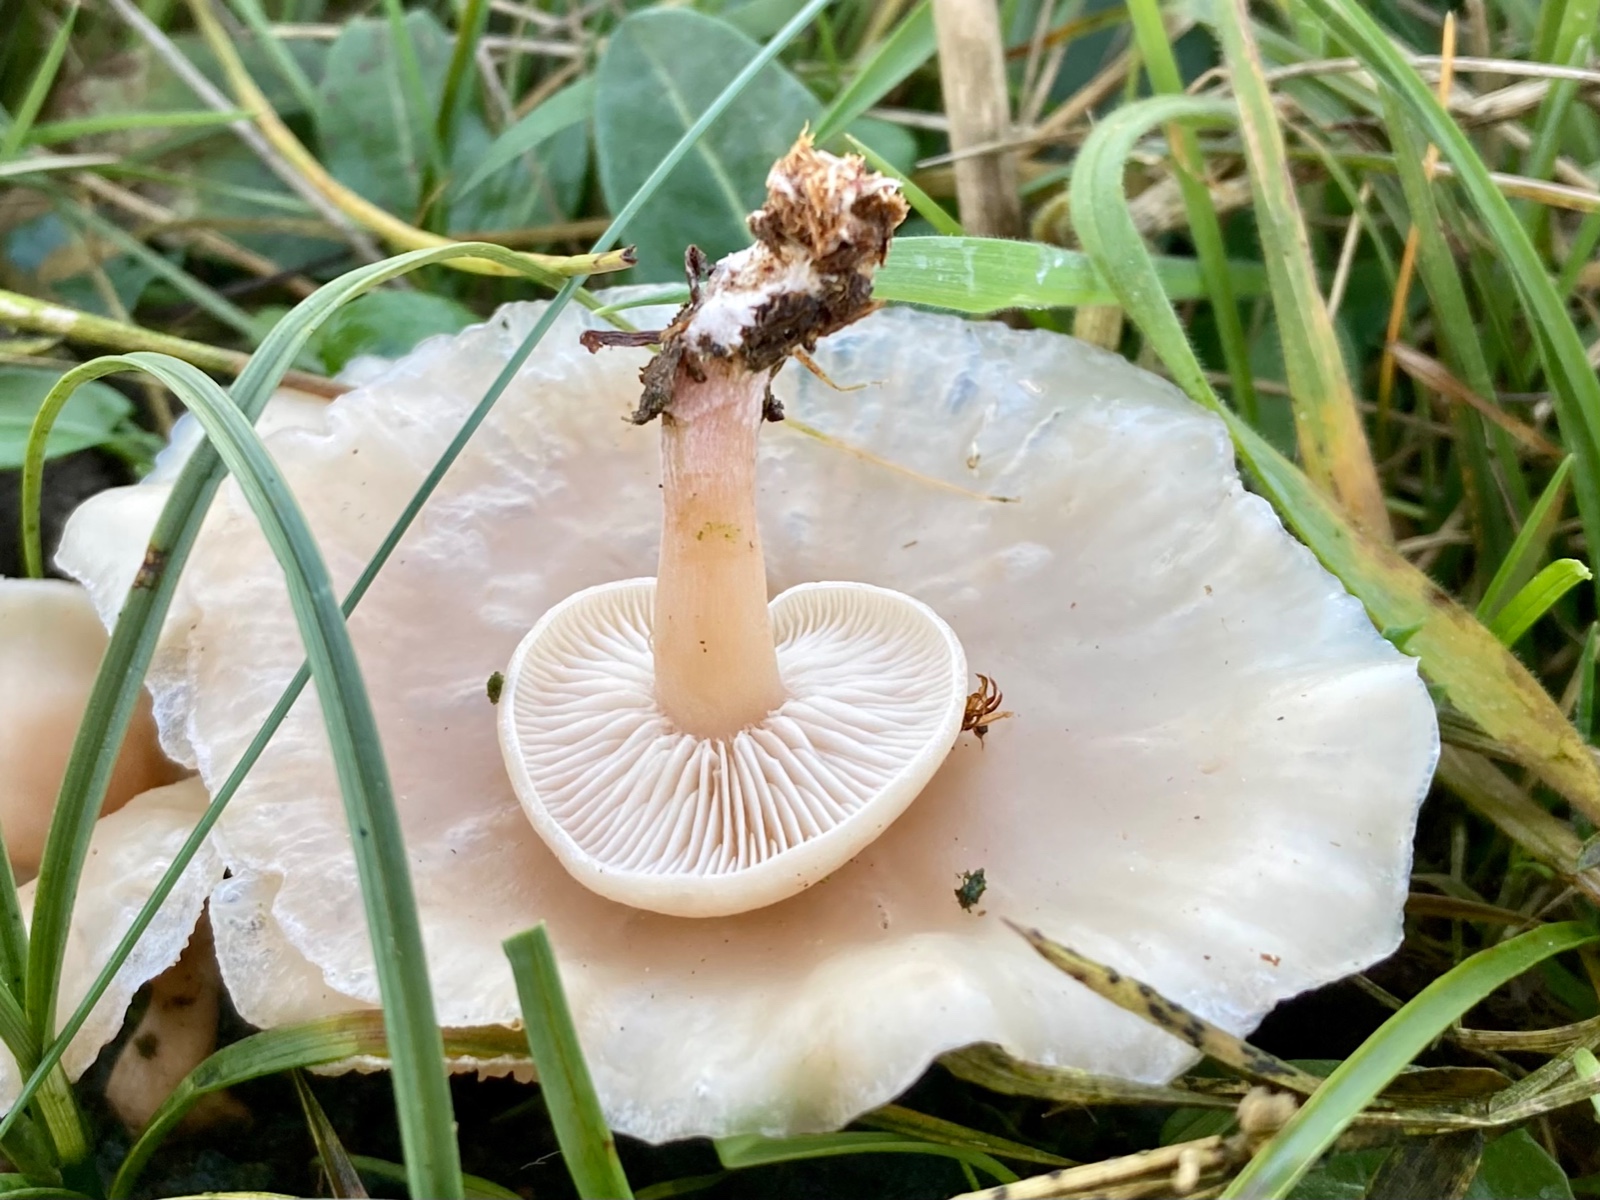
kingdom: Fungi
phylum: Basidiomycota
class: Agaricomycetes
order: Agaricales
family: Tricholomataceae
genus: Clitocybe
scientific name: Clitocybe amarescens
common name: gødnings-tragthat
